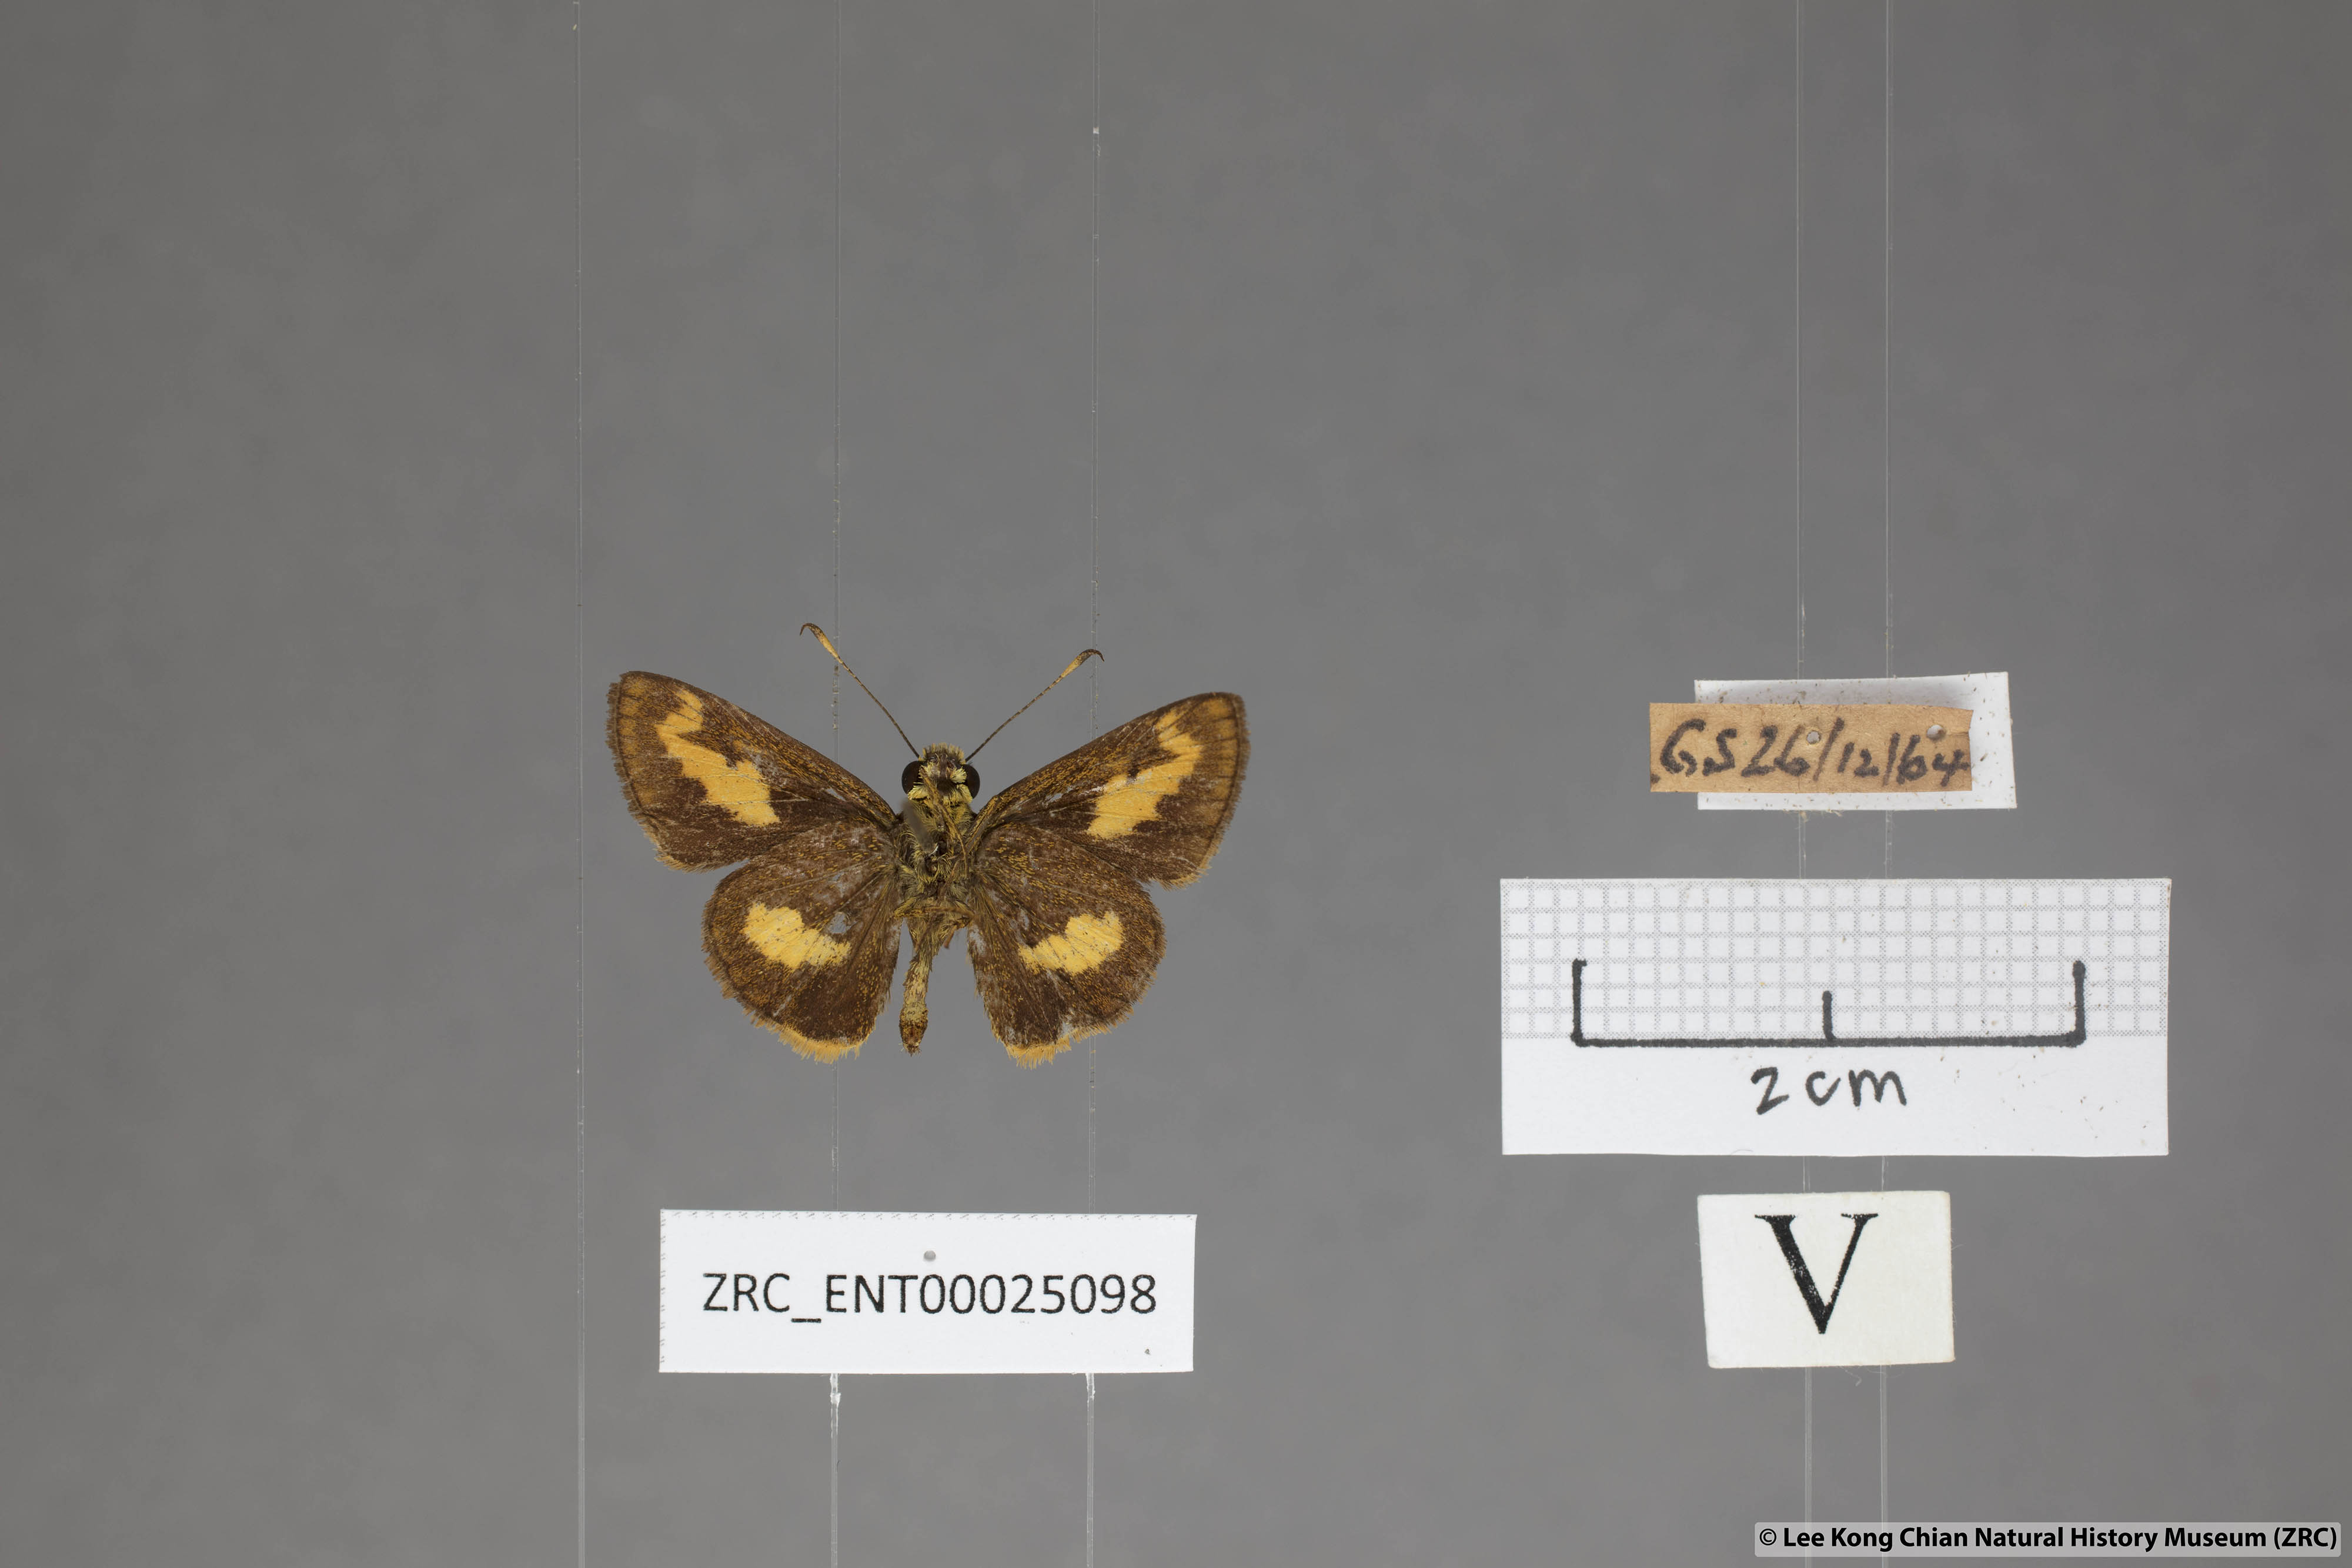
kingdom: Animalia
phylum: Arthropoda
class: Insecta
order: Lepidoptera
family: Hesperiidae
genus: Oriens
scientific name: Oriens paragola
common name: Malay dartlet
